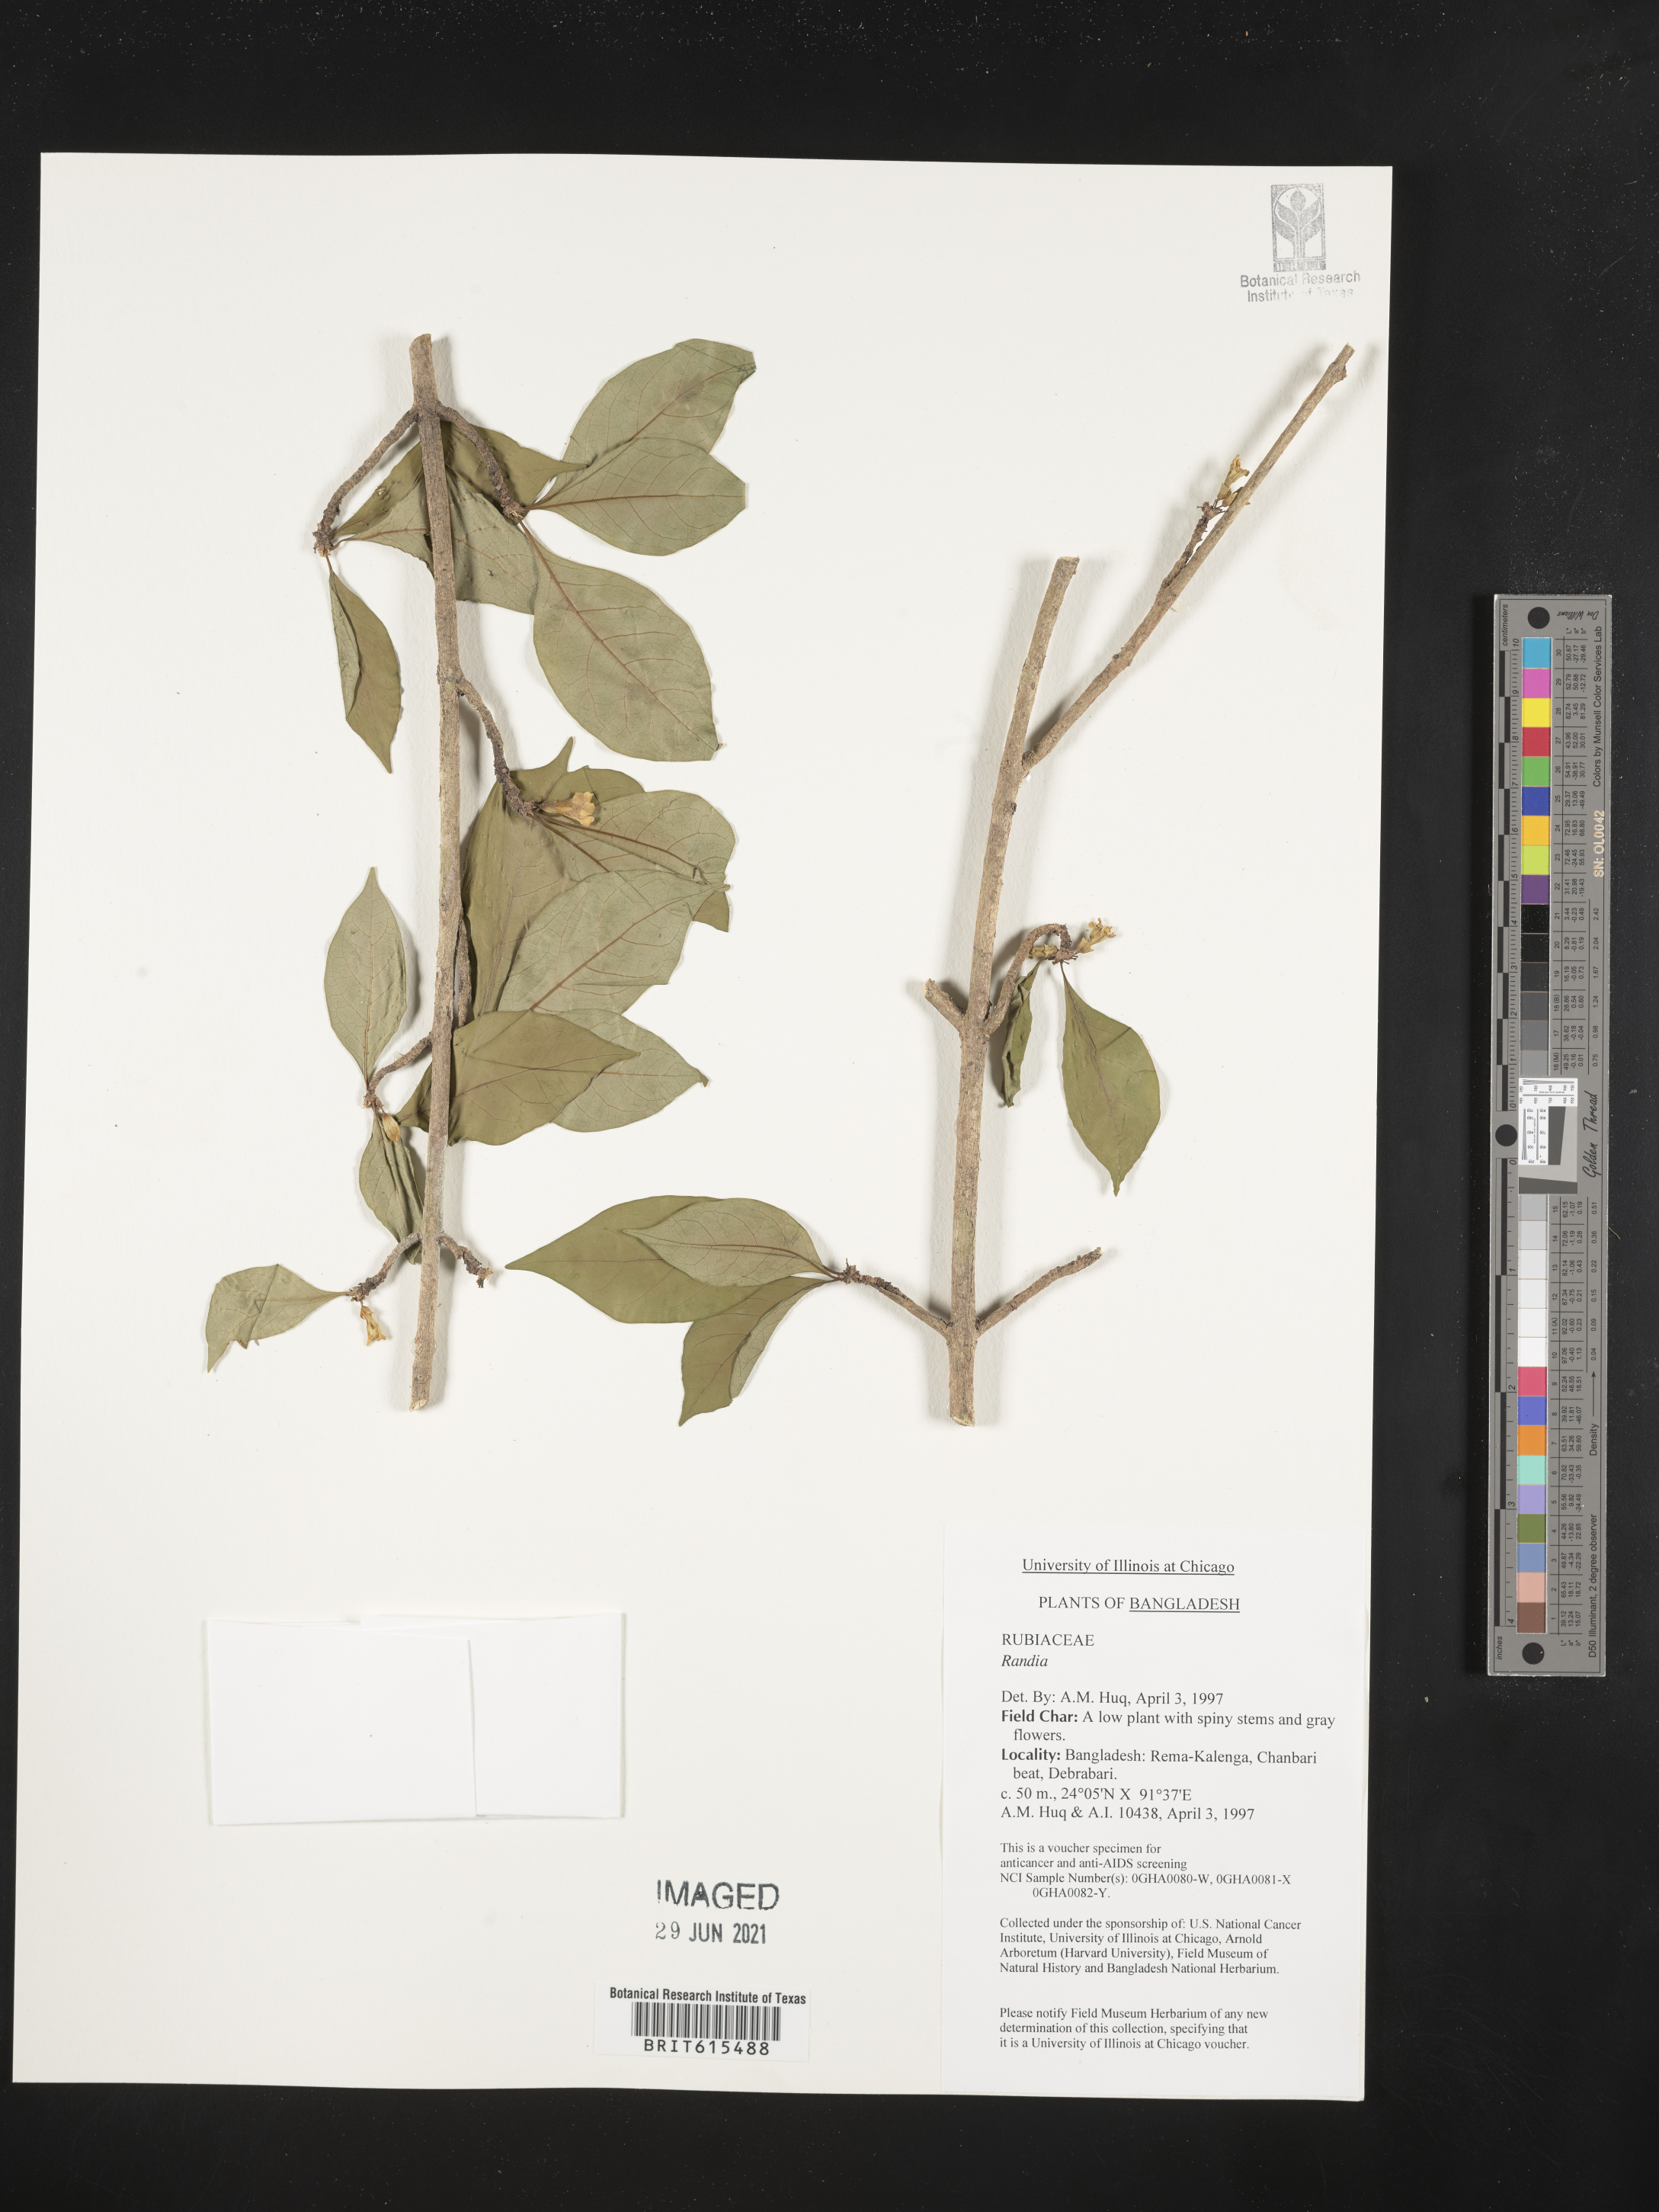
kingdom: Plantae
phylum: Tracheophyta
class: Magnoliopsida
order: Gentianales
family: Rubiaceae
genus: Randia
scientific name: Randia
